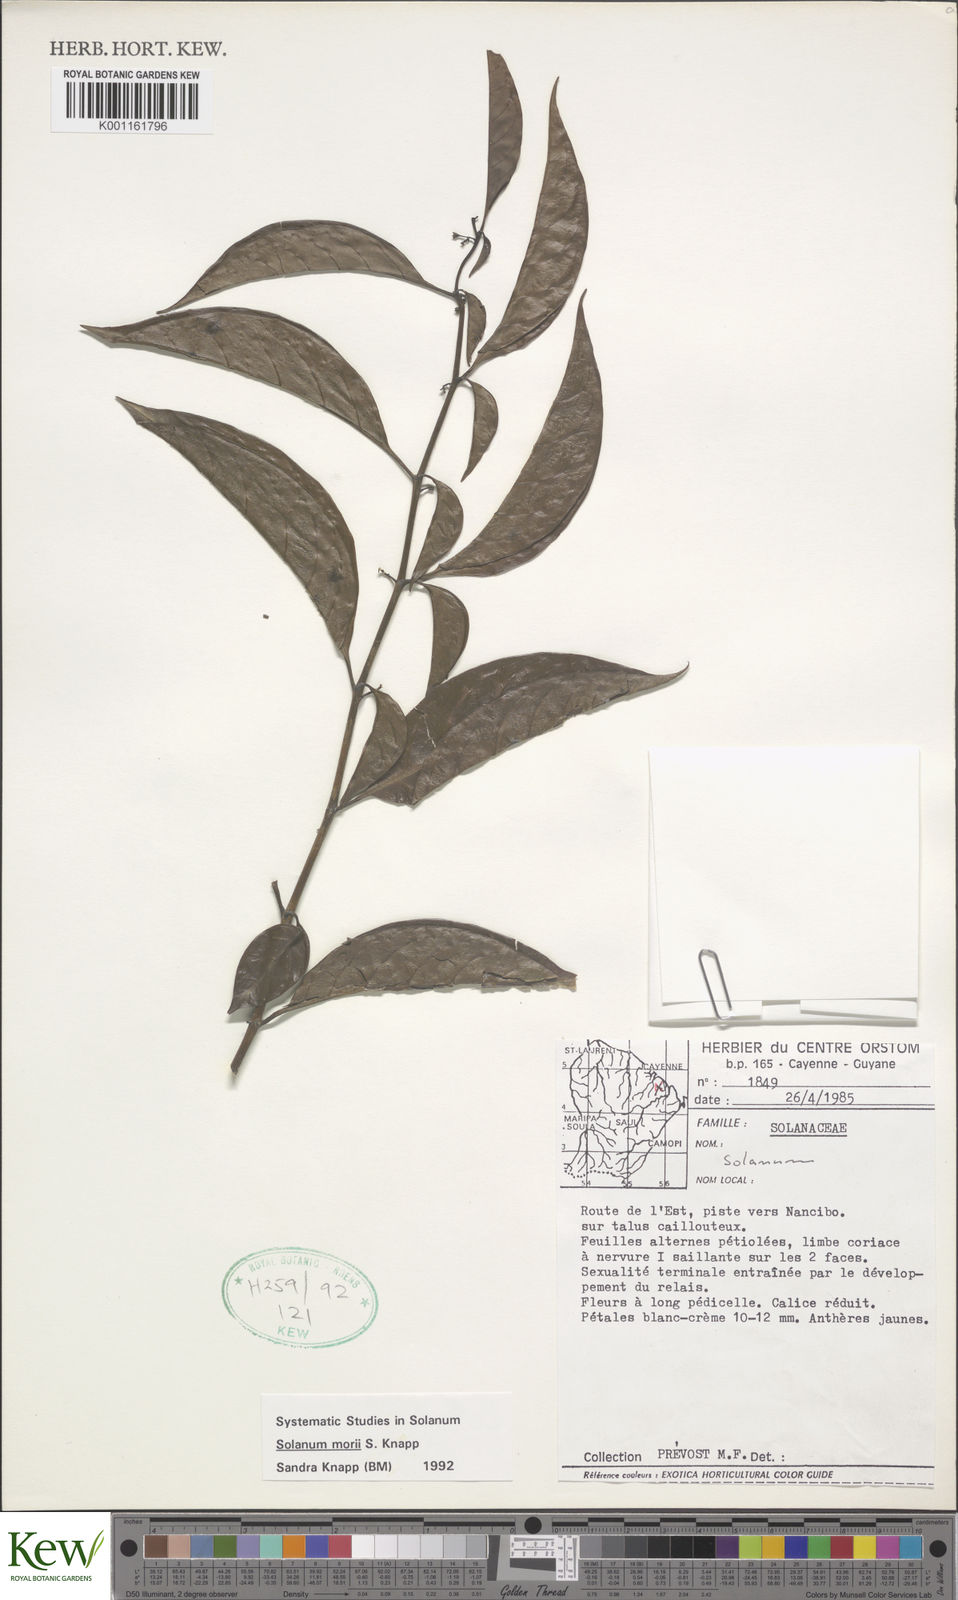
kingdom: Plantae
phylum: Tracheophyta
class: Magnoliopsida
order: Solanales
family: Solanaceae
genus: Solanum
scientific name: Solanum morii
